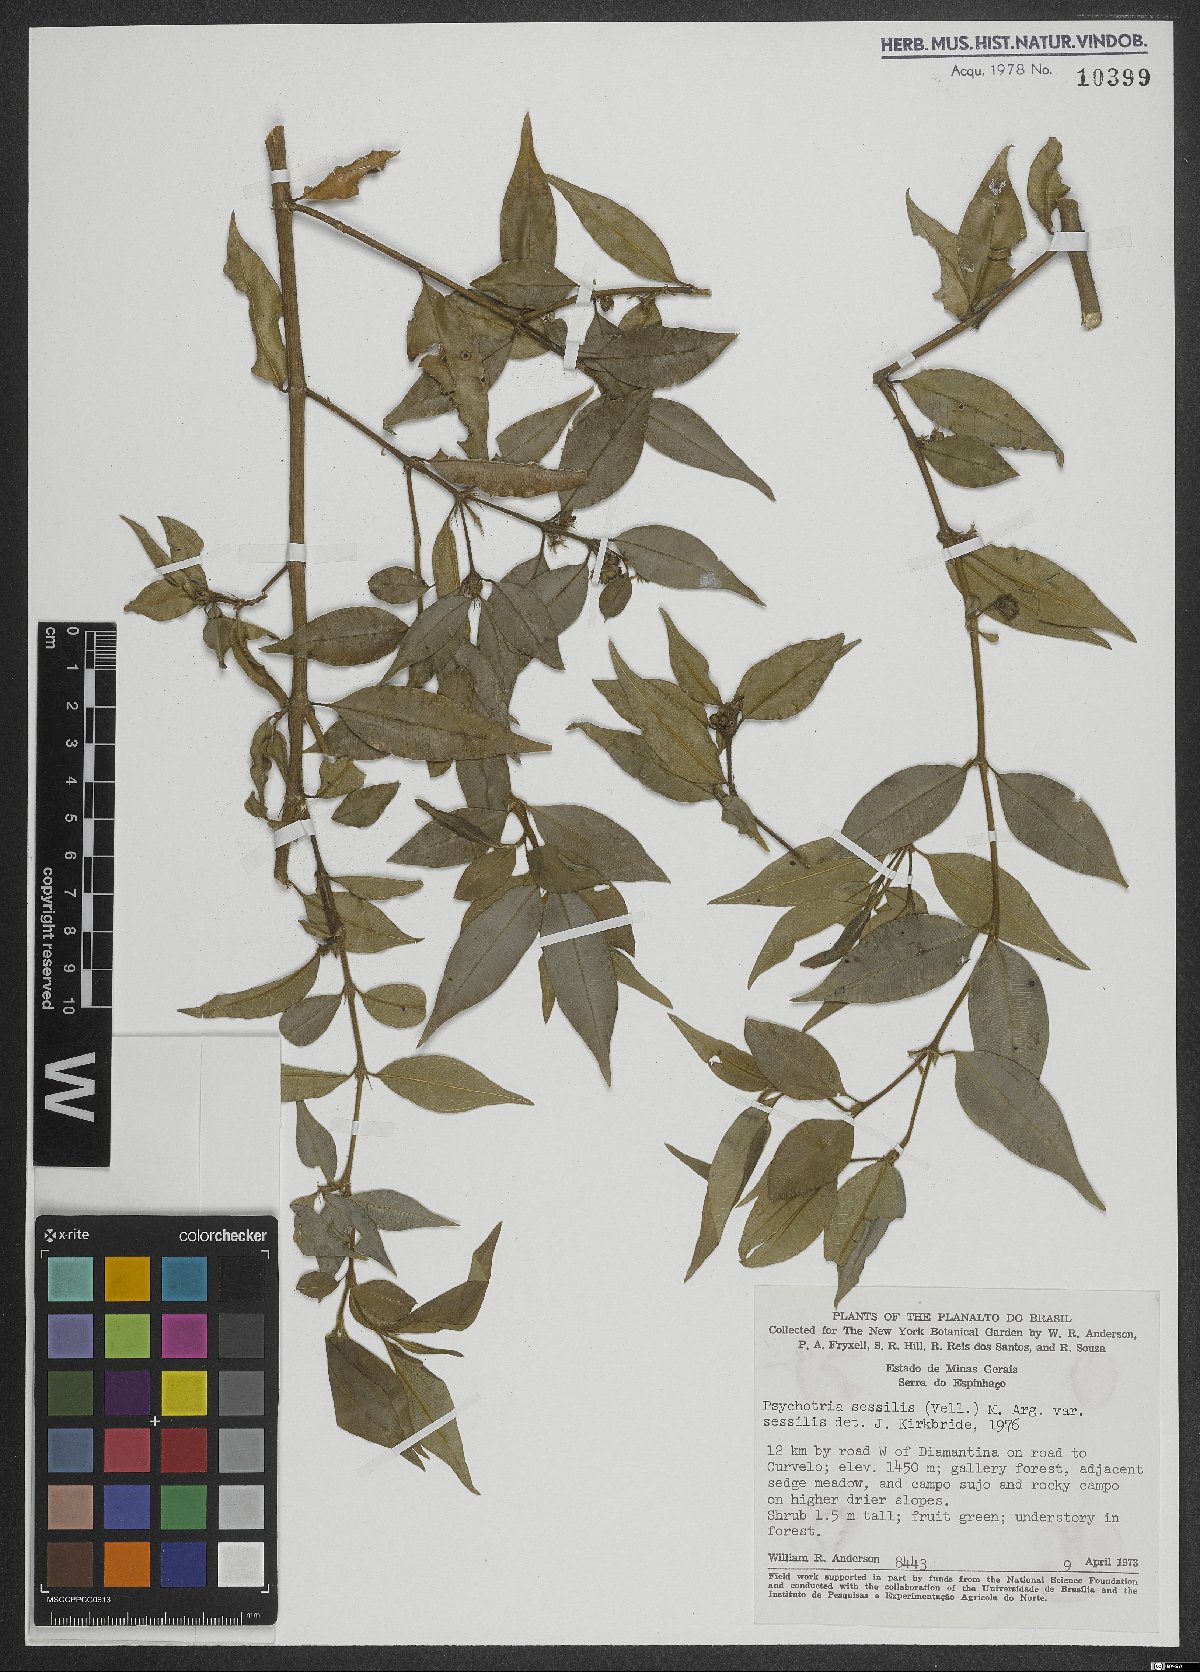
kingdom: Plantae
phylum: Tracheophyta
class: Magnoliopsida
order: Gentianales
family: Rubiaceae
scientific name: Rubiaceae
